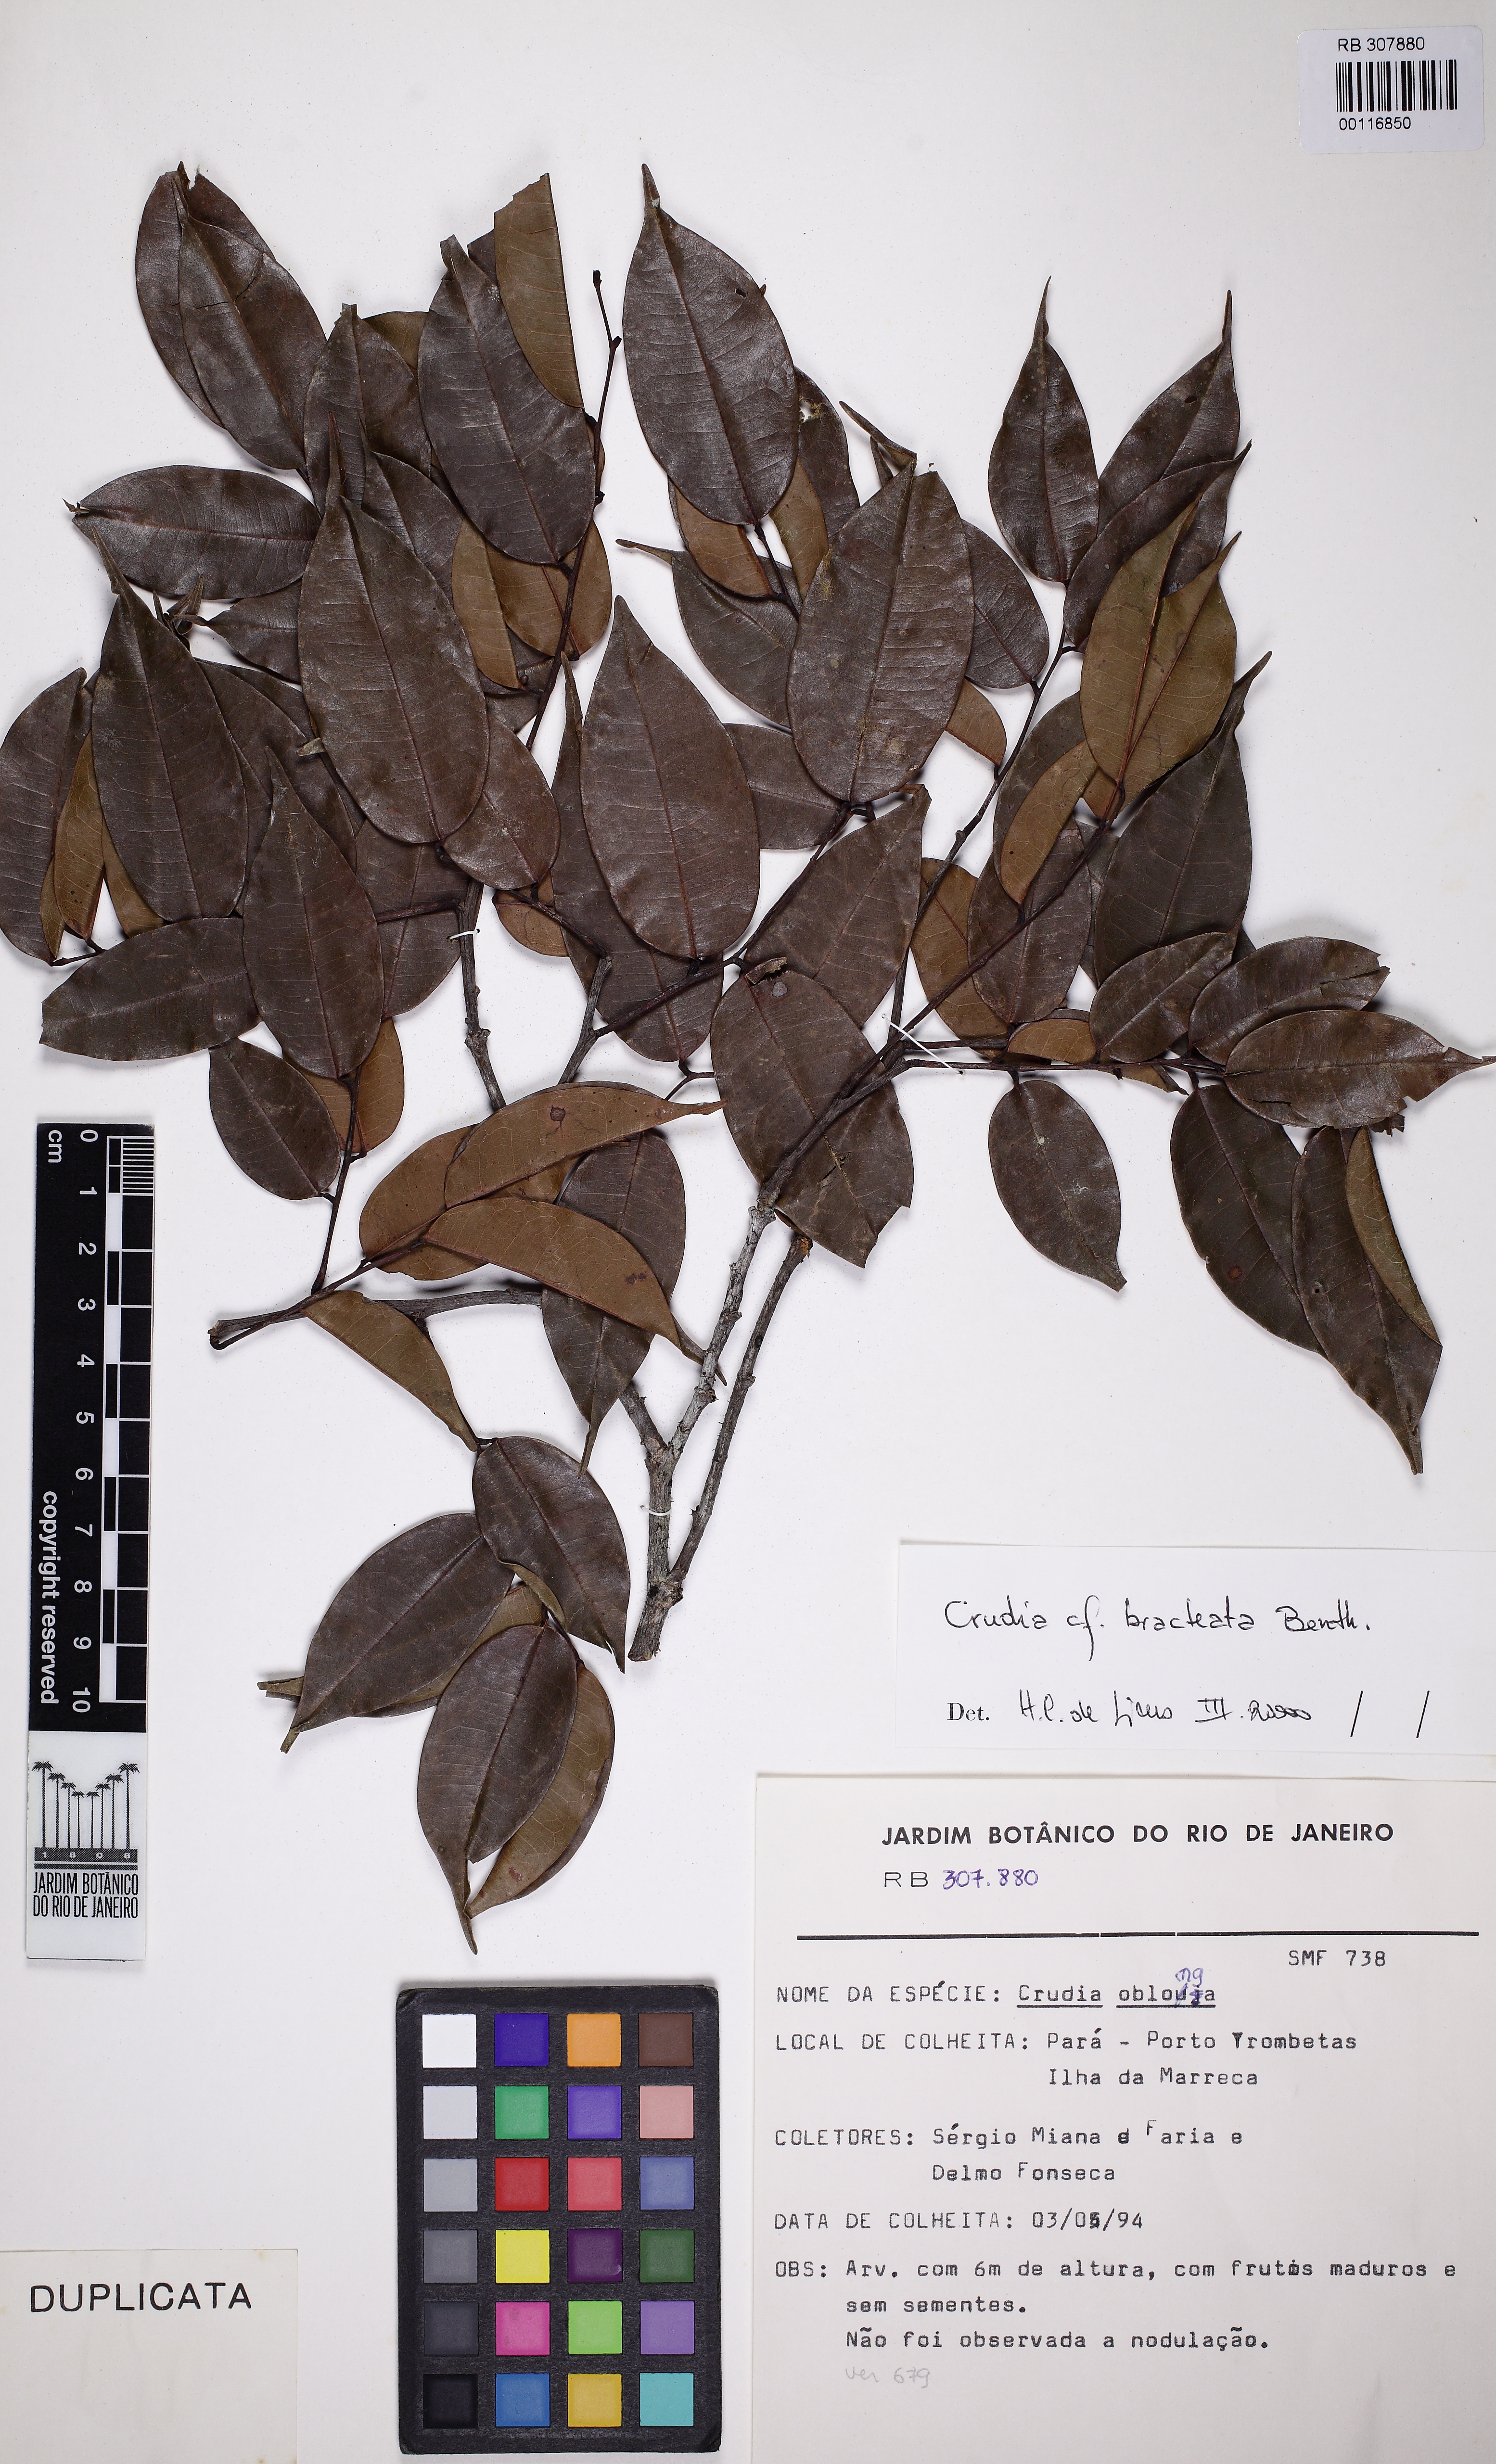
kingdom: Plantae
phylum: Tracheophyta
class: Magnoliopsida
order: Fabales
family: Fabaceae
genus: Crudia
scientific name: Crudia bracteata
